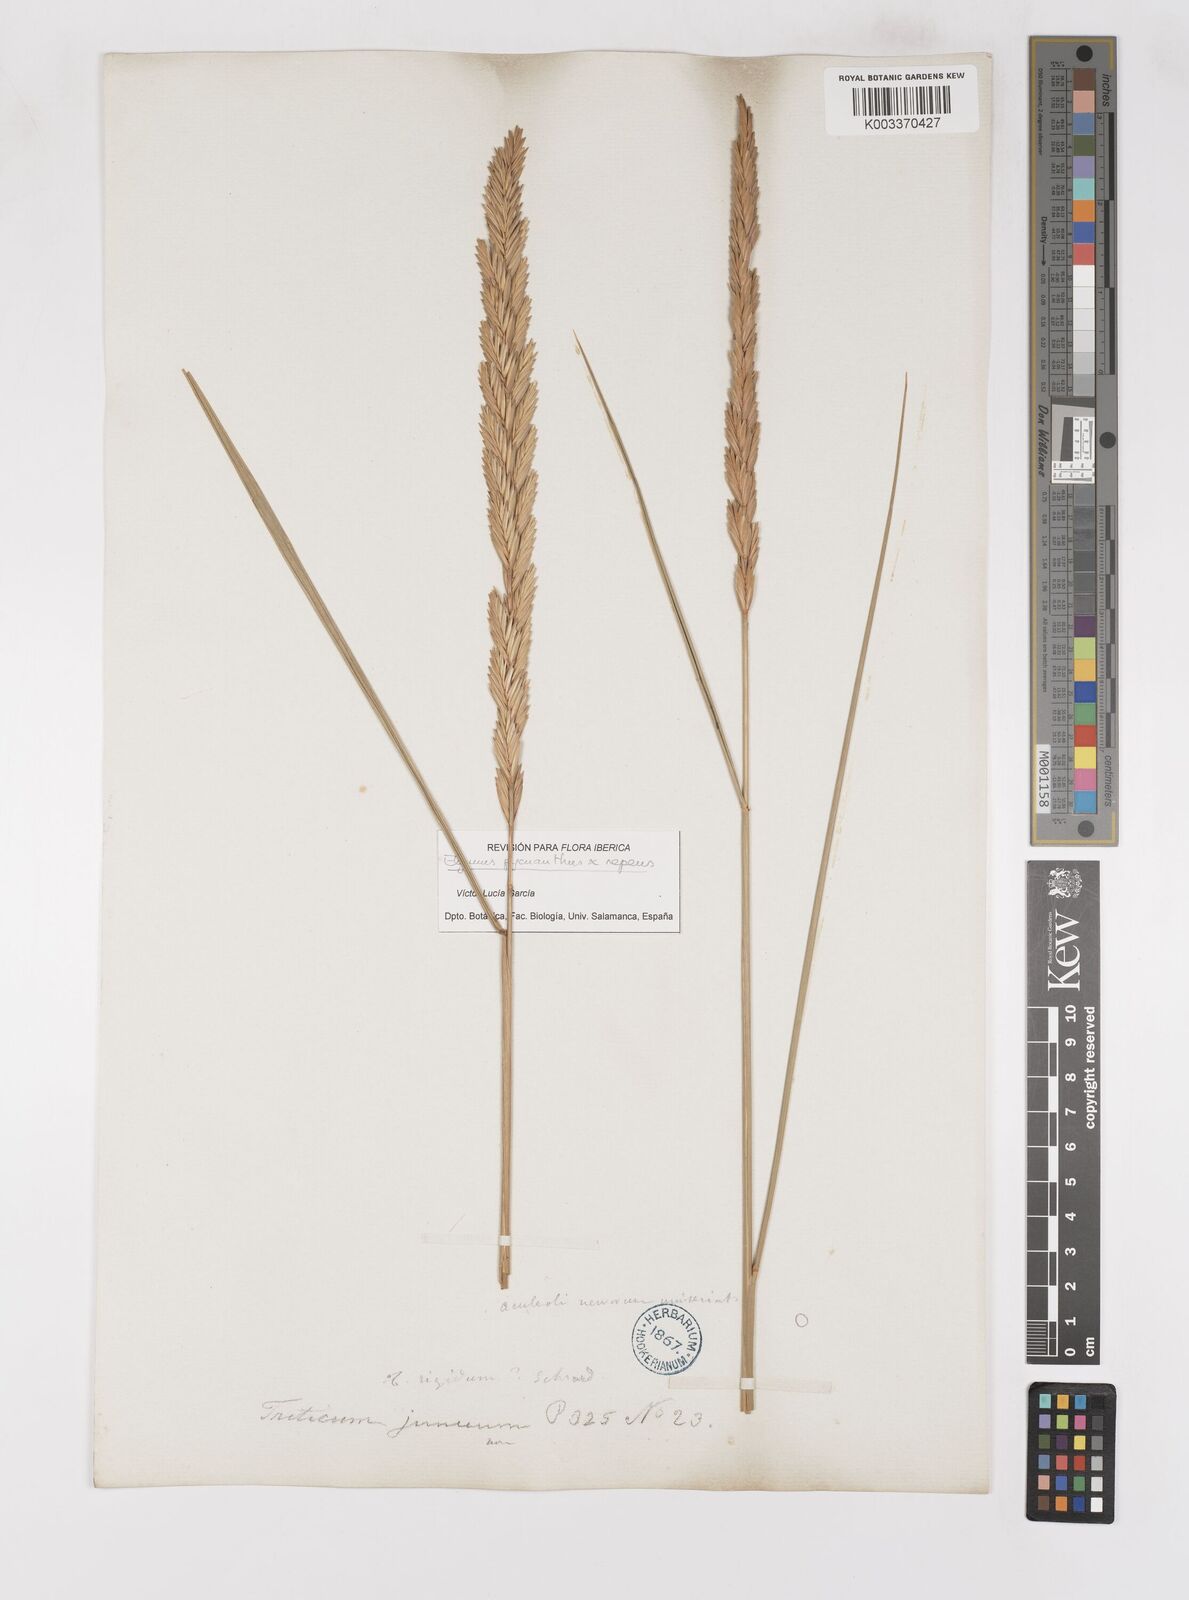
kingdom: Plantae
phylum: Tracheophyta
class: Liliopsida
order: Poales
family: Poaceae
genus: Elymus
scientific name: Elymus oliveri
